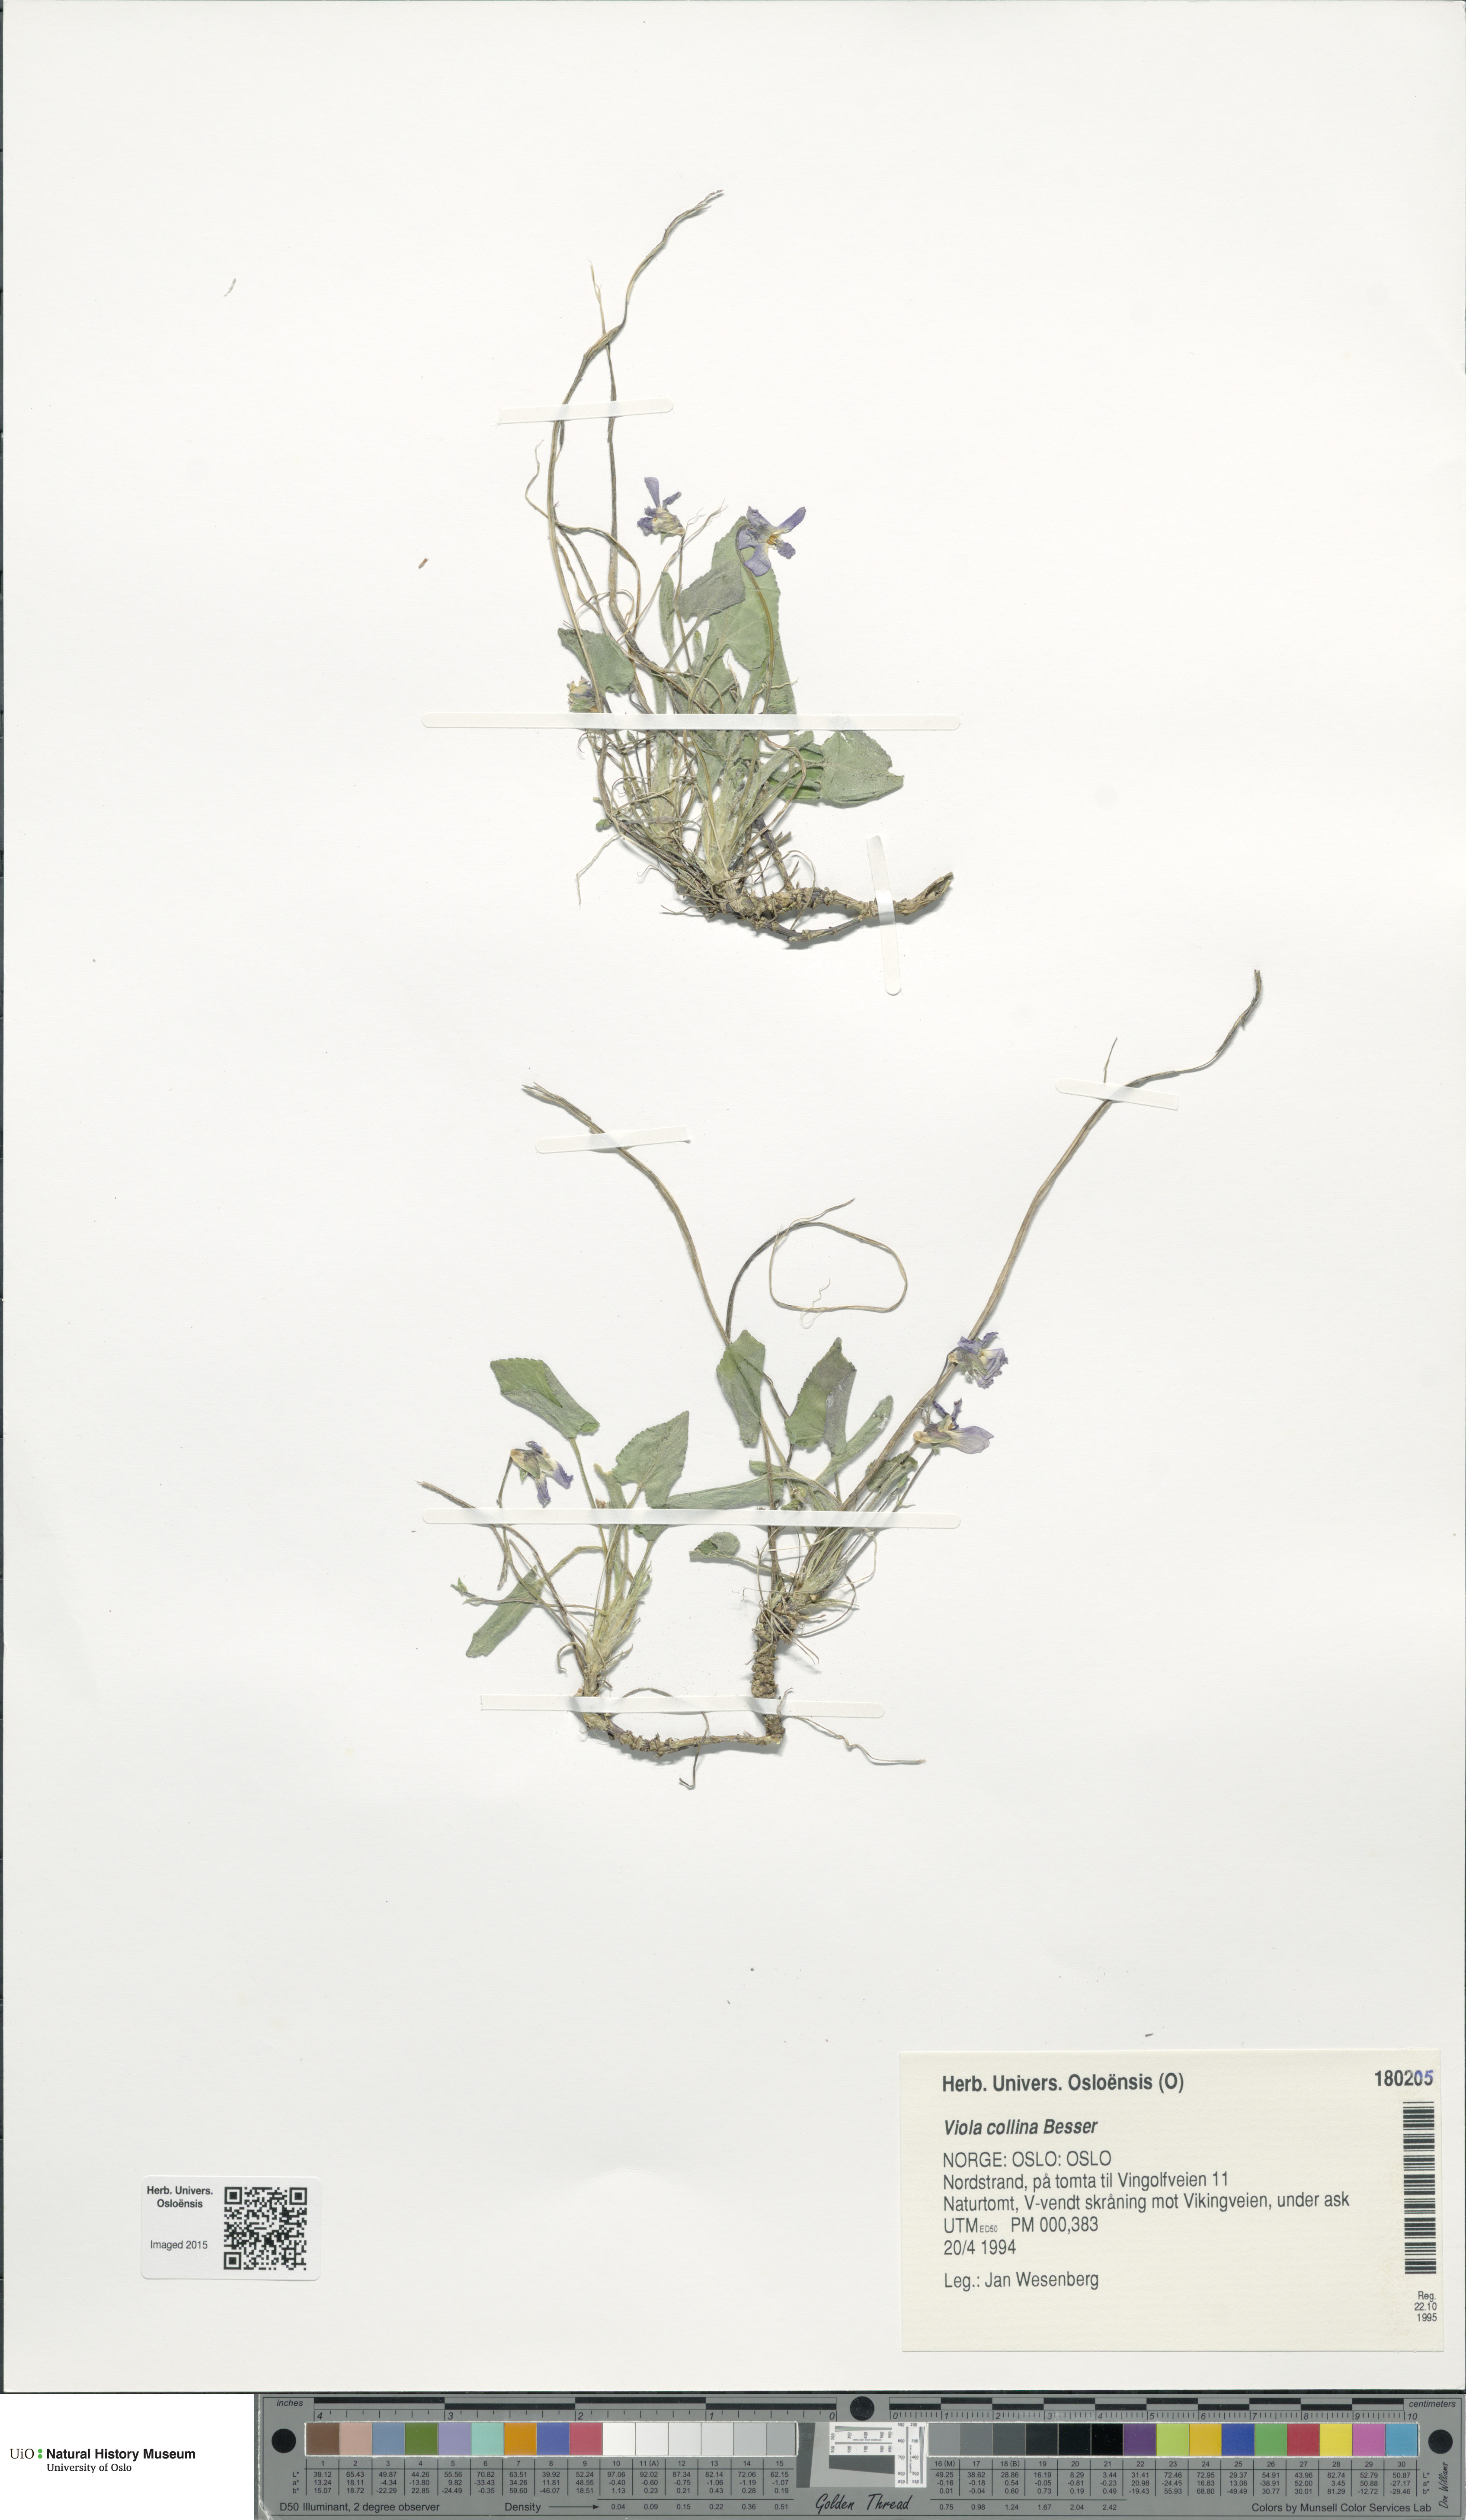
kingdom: Plantae
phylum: Tracheophyta
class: Magnoliopsida
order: Malpighiales
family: Violaceae
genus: Viola
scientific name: Viola collina
